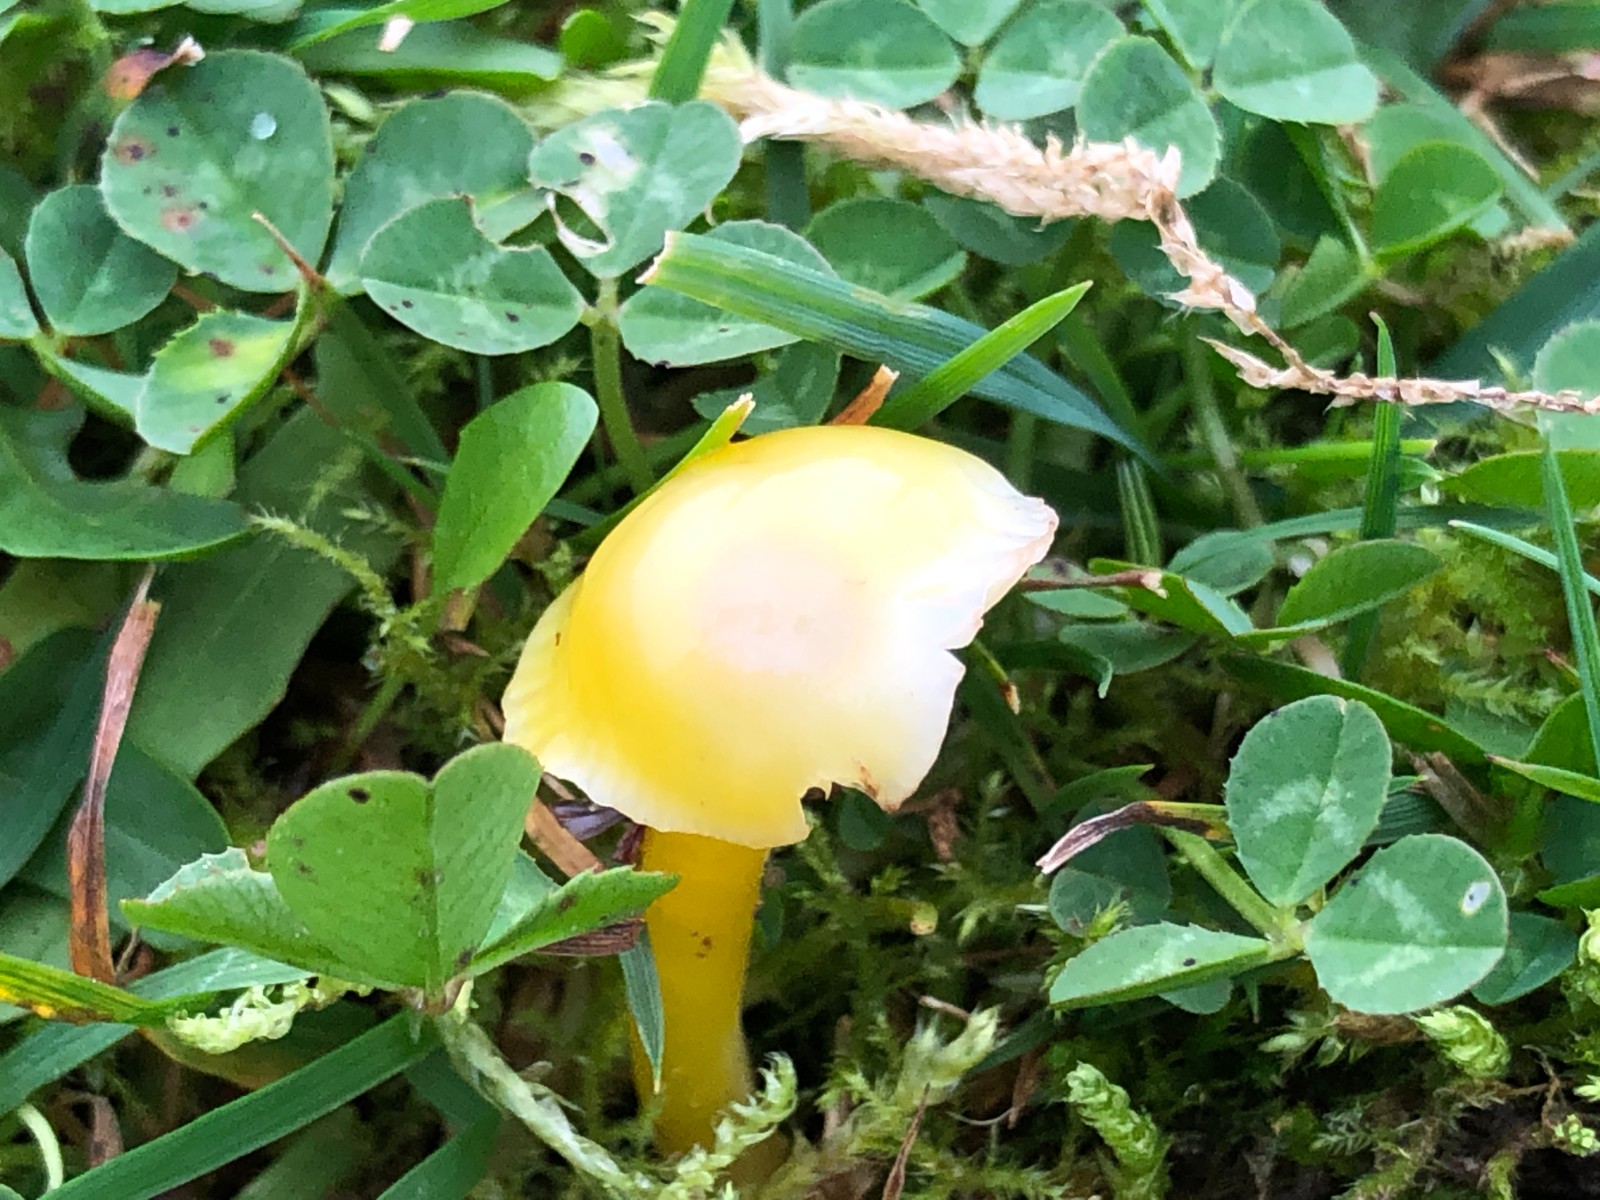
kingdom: Fungi
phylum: Basidiomycota
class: Agaricomycetes
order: Agaricales
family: Hygrophoraceae
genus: Hygrocybe
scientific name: Hygrocybe
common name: vokshat
